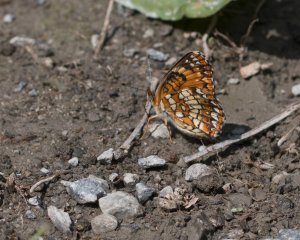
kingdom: Animalia
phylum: Arthropoda
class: Insecta
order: Lepidoptera
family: Nymphalidae
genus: Chlosyne
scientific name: Chlosyne harrisii
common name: Harris's Checkerspot
